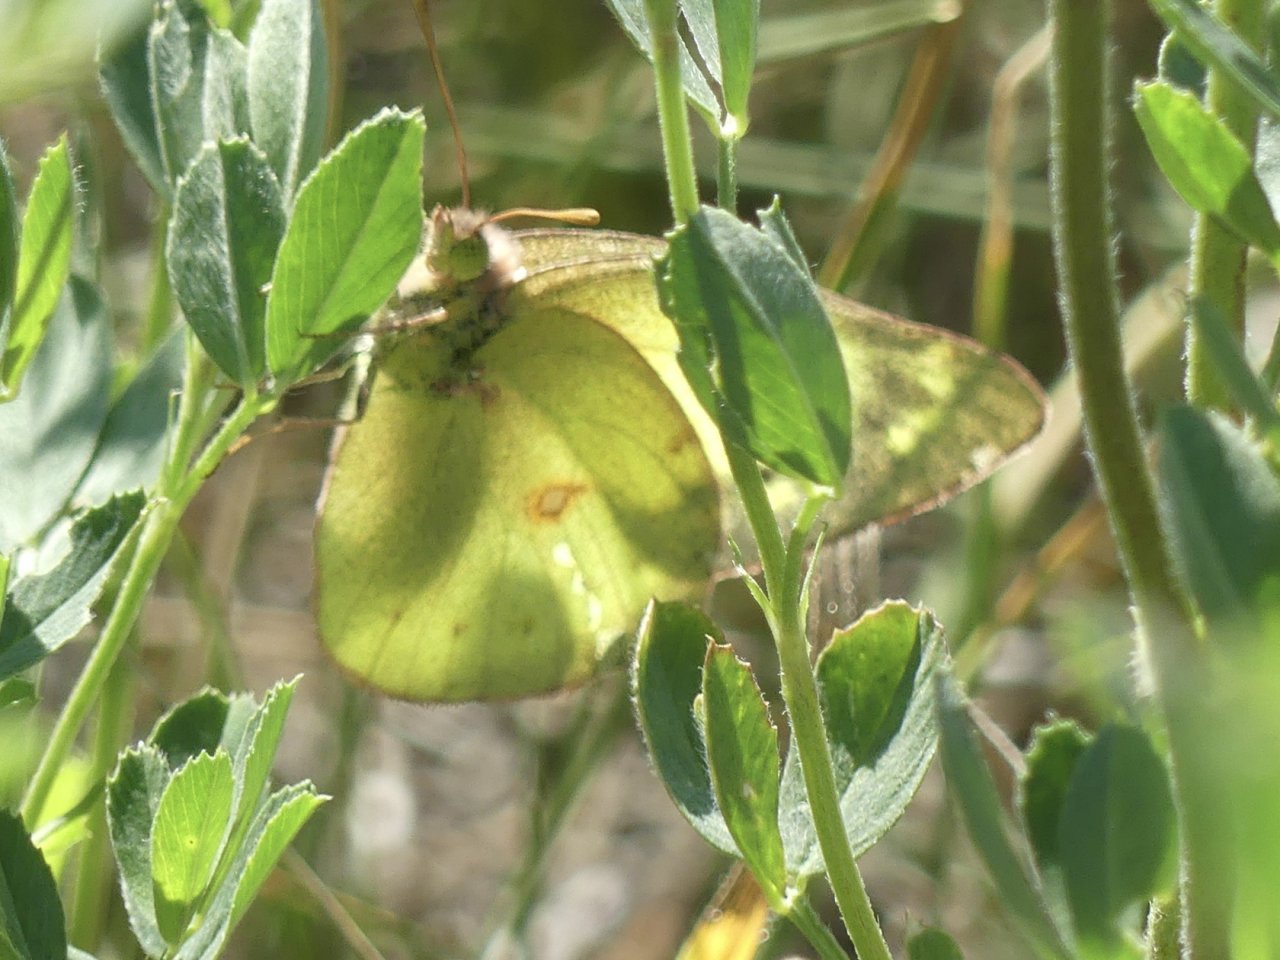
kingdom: Animalia
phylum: Arthropoda
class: Insecta
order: Lepidoptera
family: Pieridae
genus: Colias
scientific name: Colias philodice
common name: Clouded Sulphur
